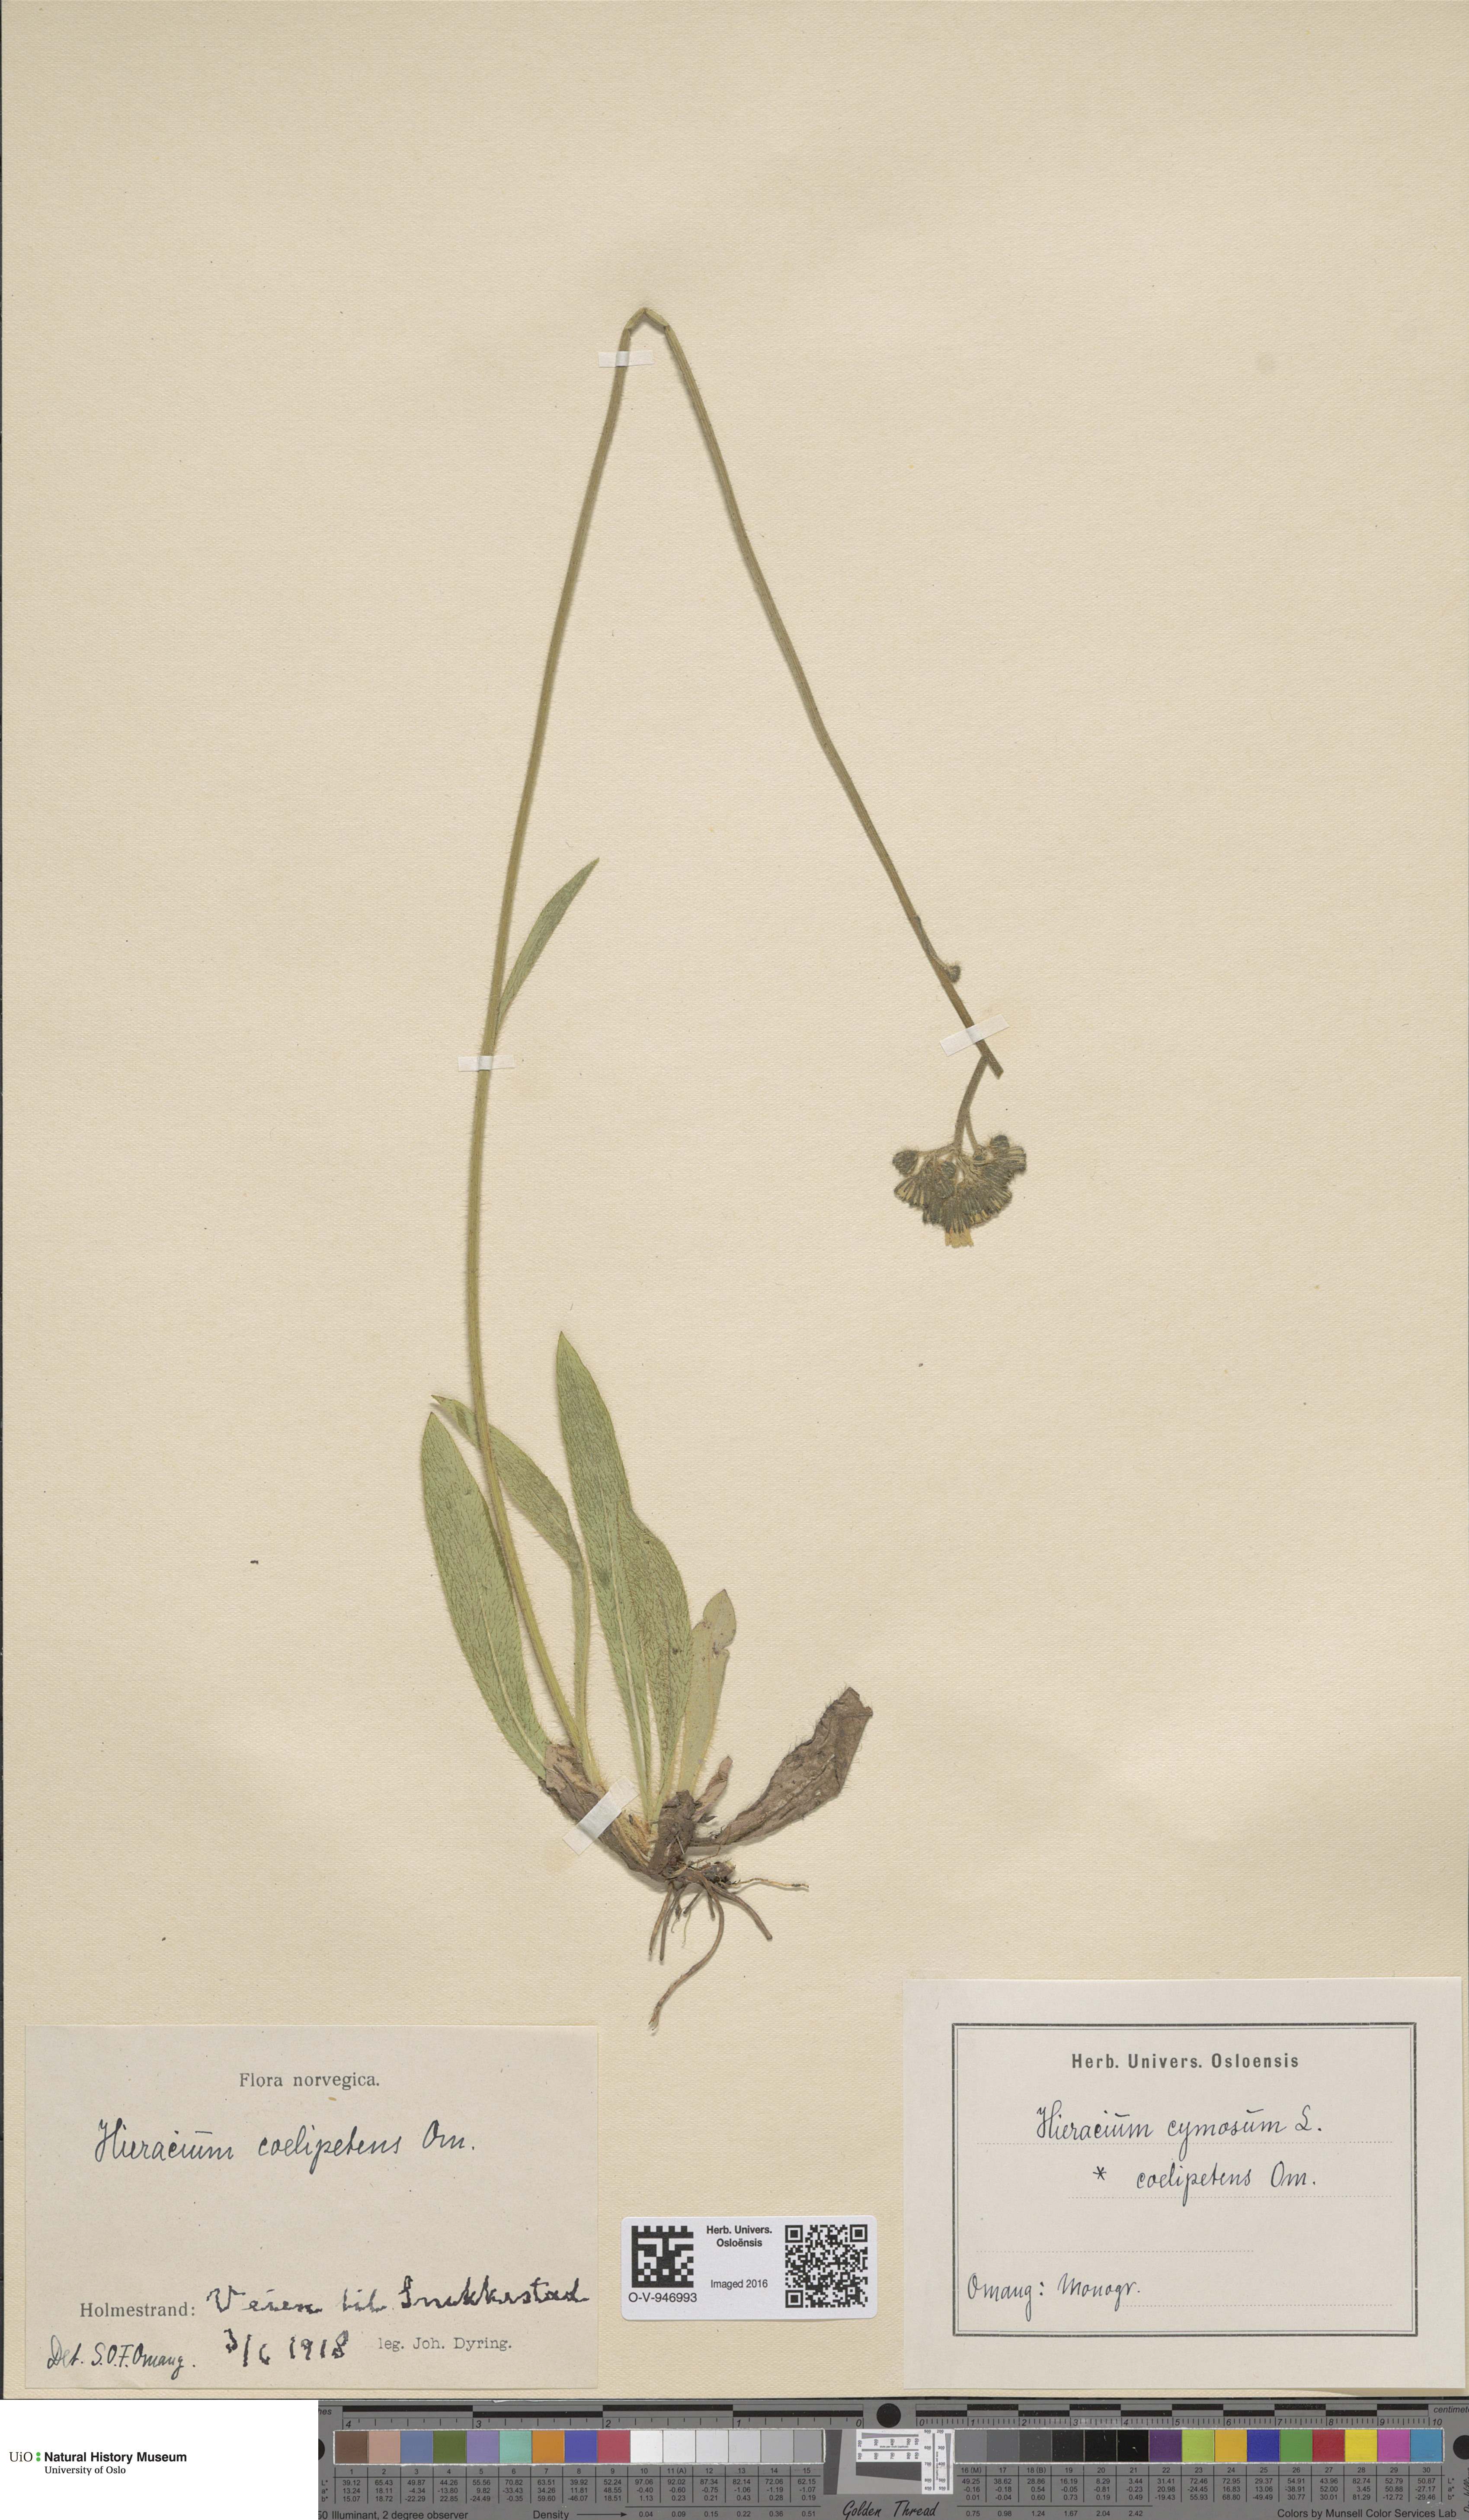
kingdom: Plantae
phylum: Tracheophyta
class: Magnoliopsida
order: Asterales
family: Asteraceae
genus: Pilosella
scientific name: Pilosella cymosa
